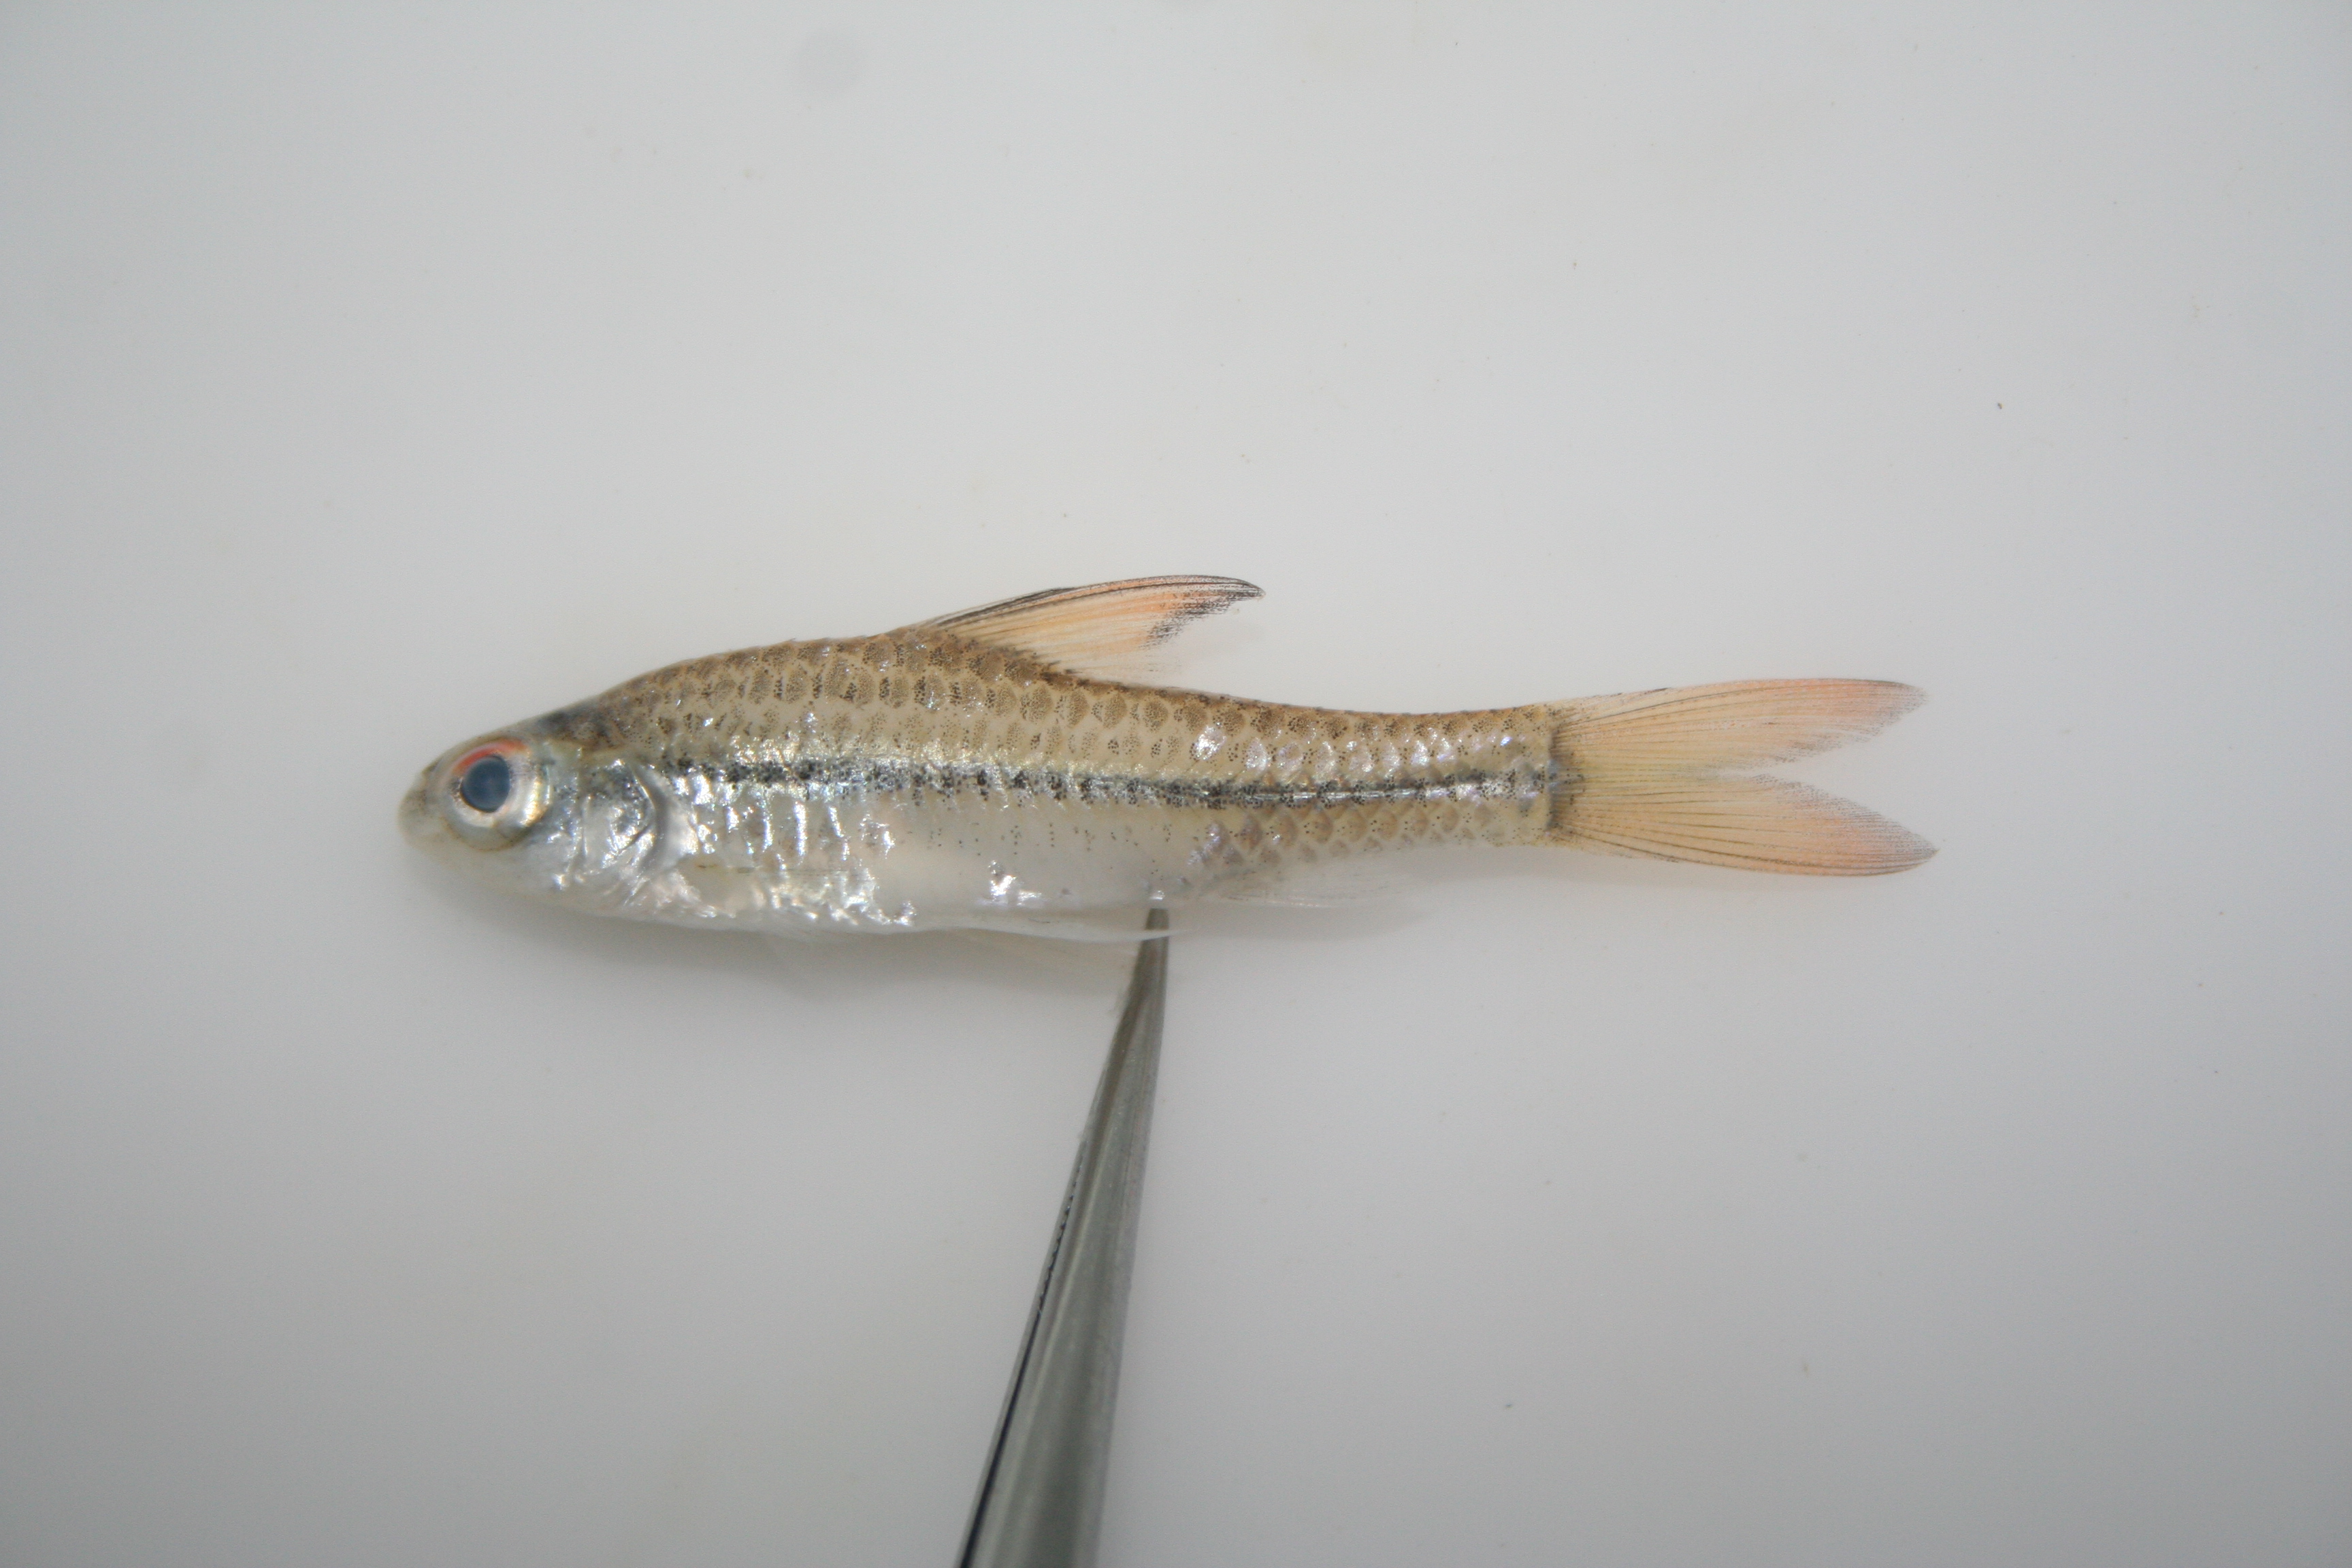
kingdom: Animalia
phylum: Chordata
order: Cypriniformes
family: Cyprinidae
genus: Enteromius
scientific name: Enteromius radiatus
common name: Beira barb
